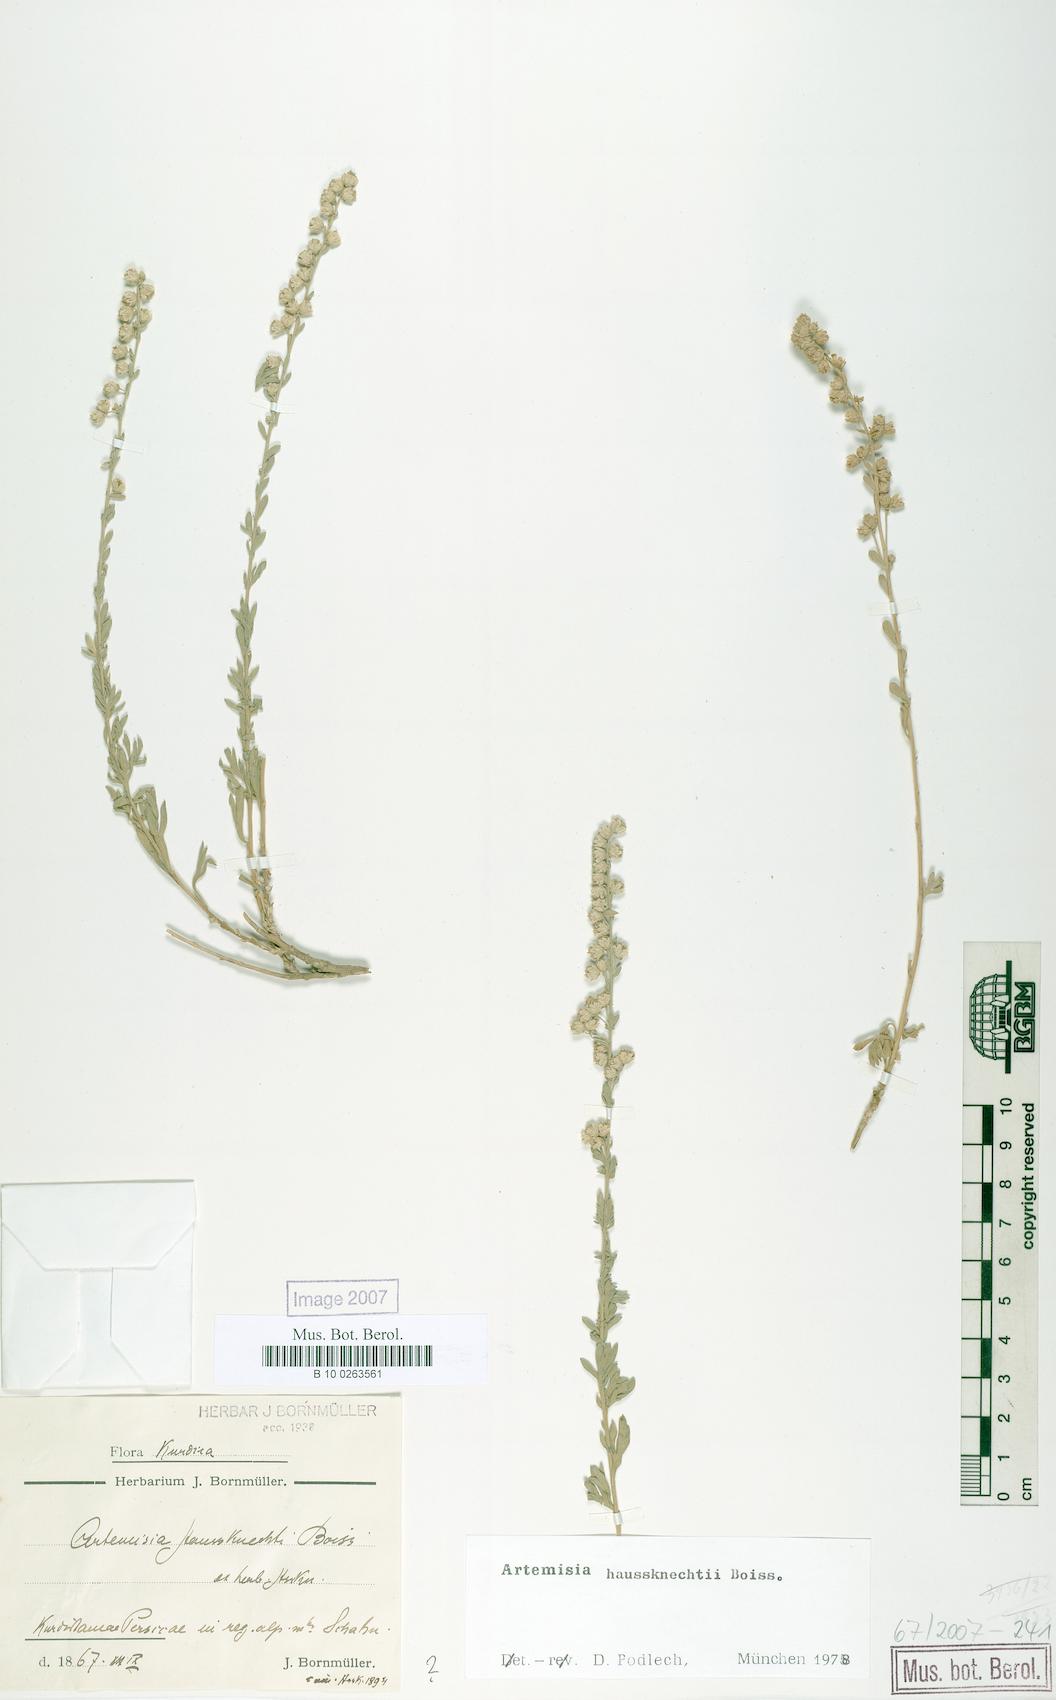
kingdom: Plantae
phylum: Tracheophyta
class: Magnoliopsida
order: Asterales
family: Asteraceae
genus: Artemisia
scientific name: Artemisia haussknechtii
